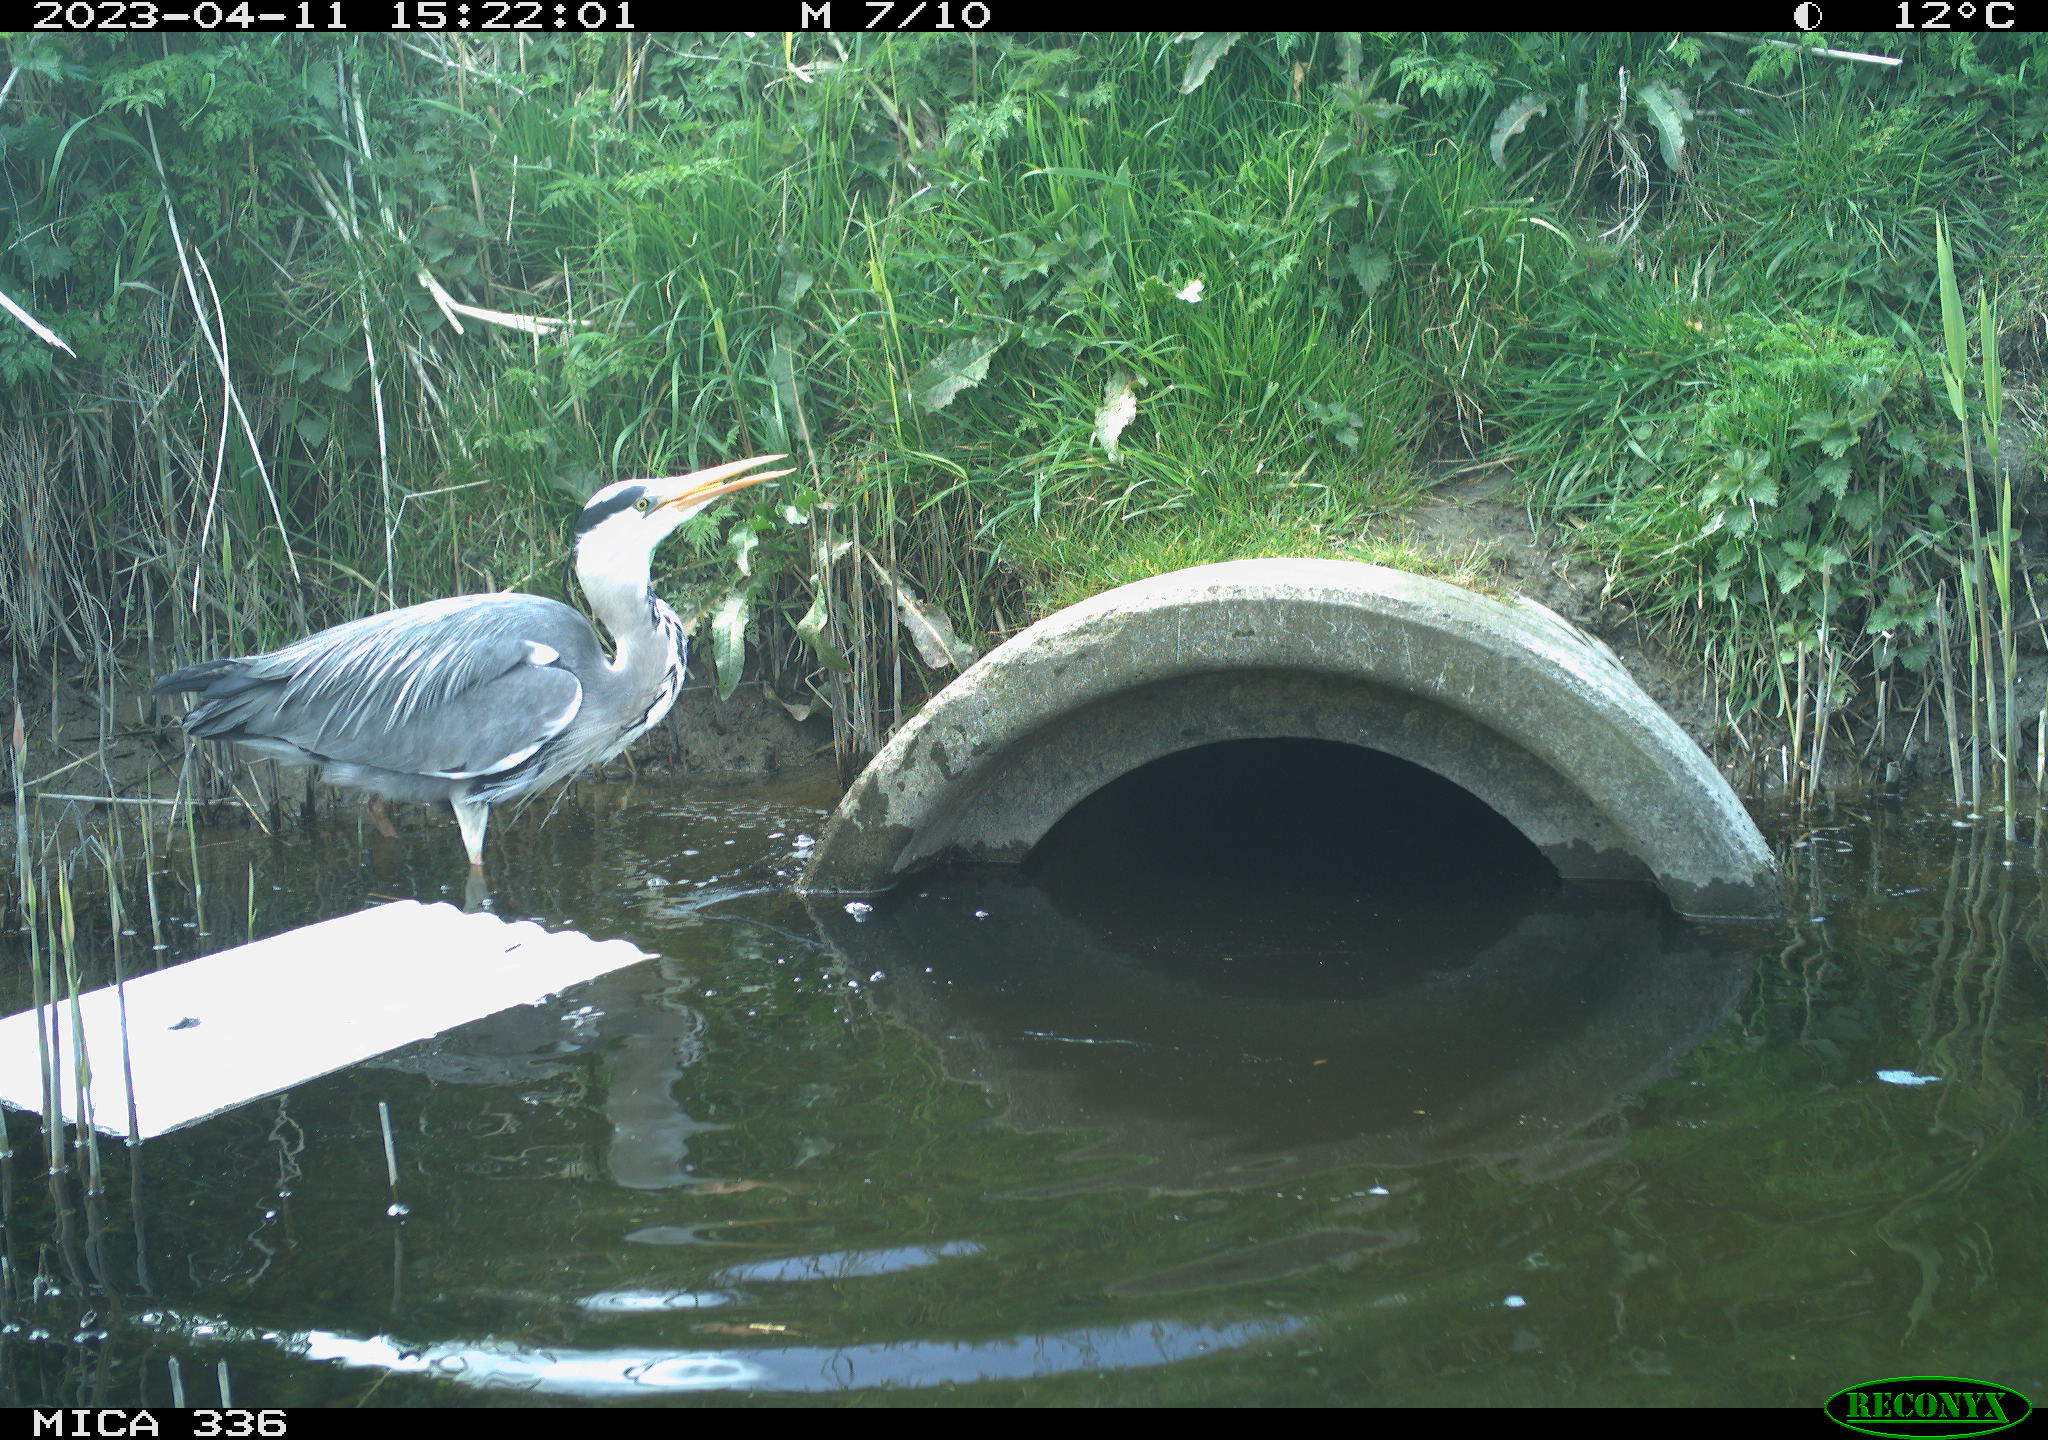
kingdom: Animalia
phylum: Chordata
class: Aves
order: Pelecaniformes
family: Ardeidae
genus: Ardea
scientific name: Ardea cinerea
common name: Grey heron
